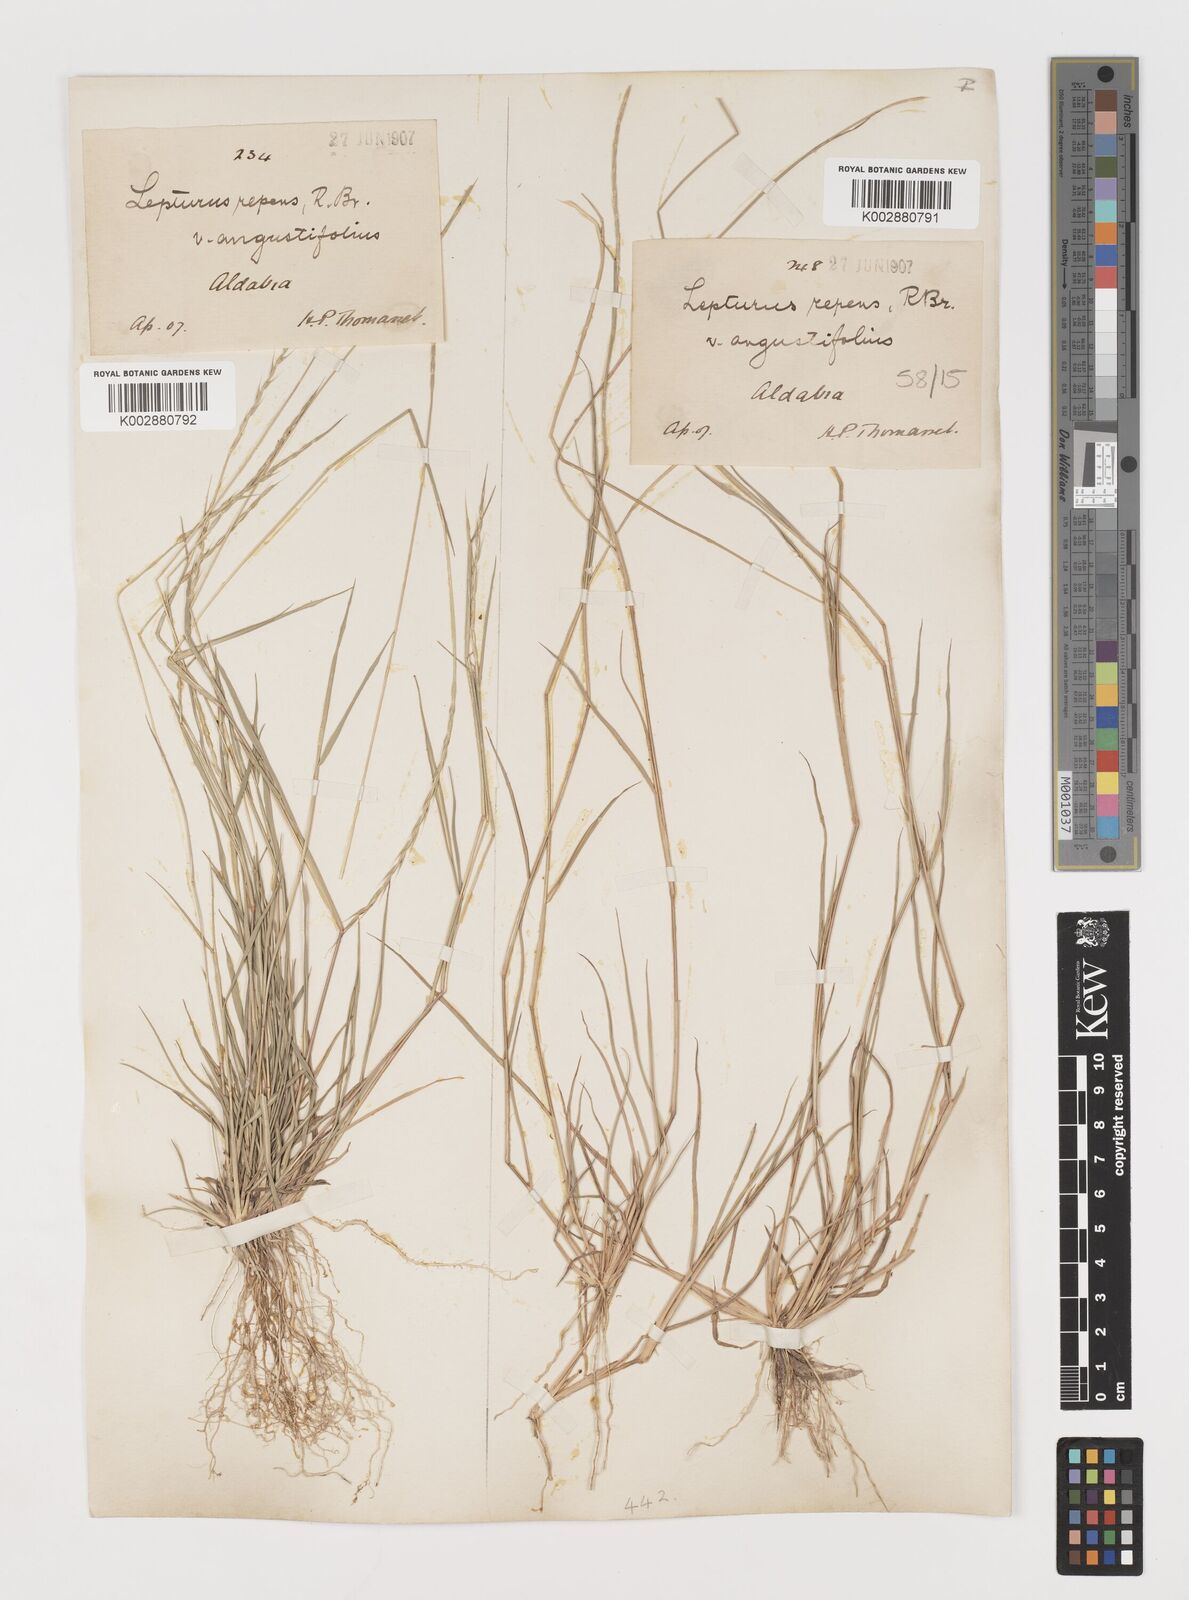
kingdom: Plantae
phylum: Tracheophyta
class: Liliopsida
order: Poales
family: Poaceae
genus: Lepturus
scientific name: Lepturus repens
